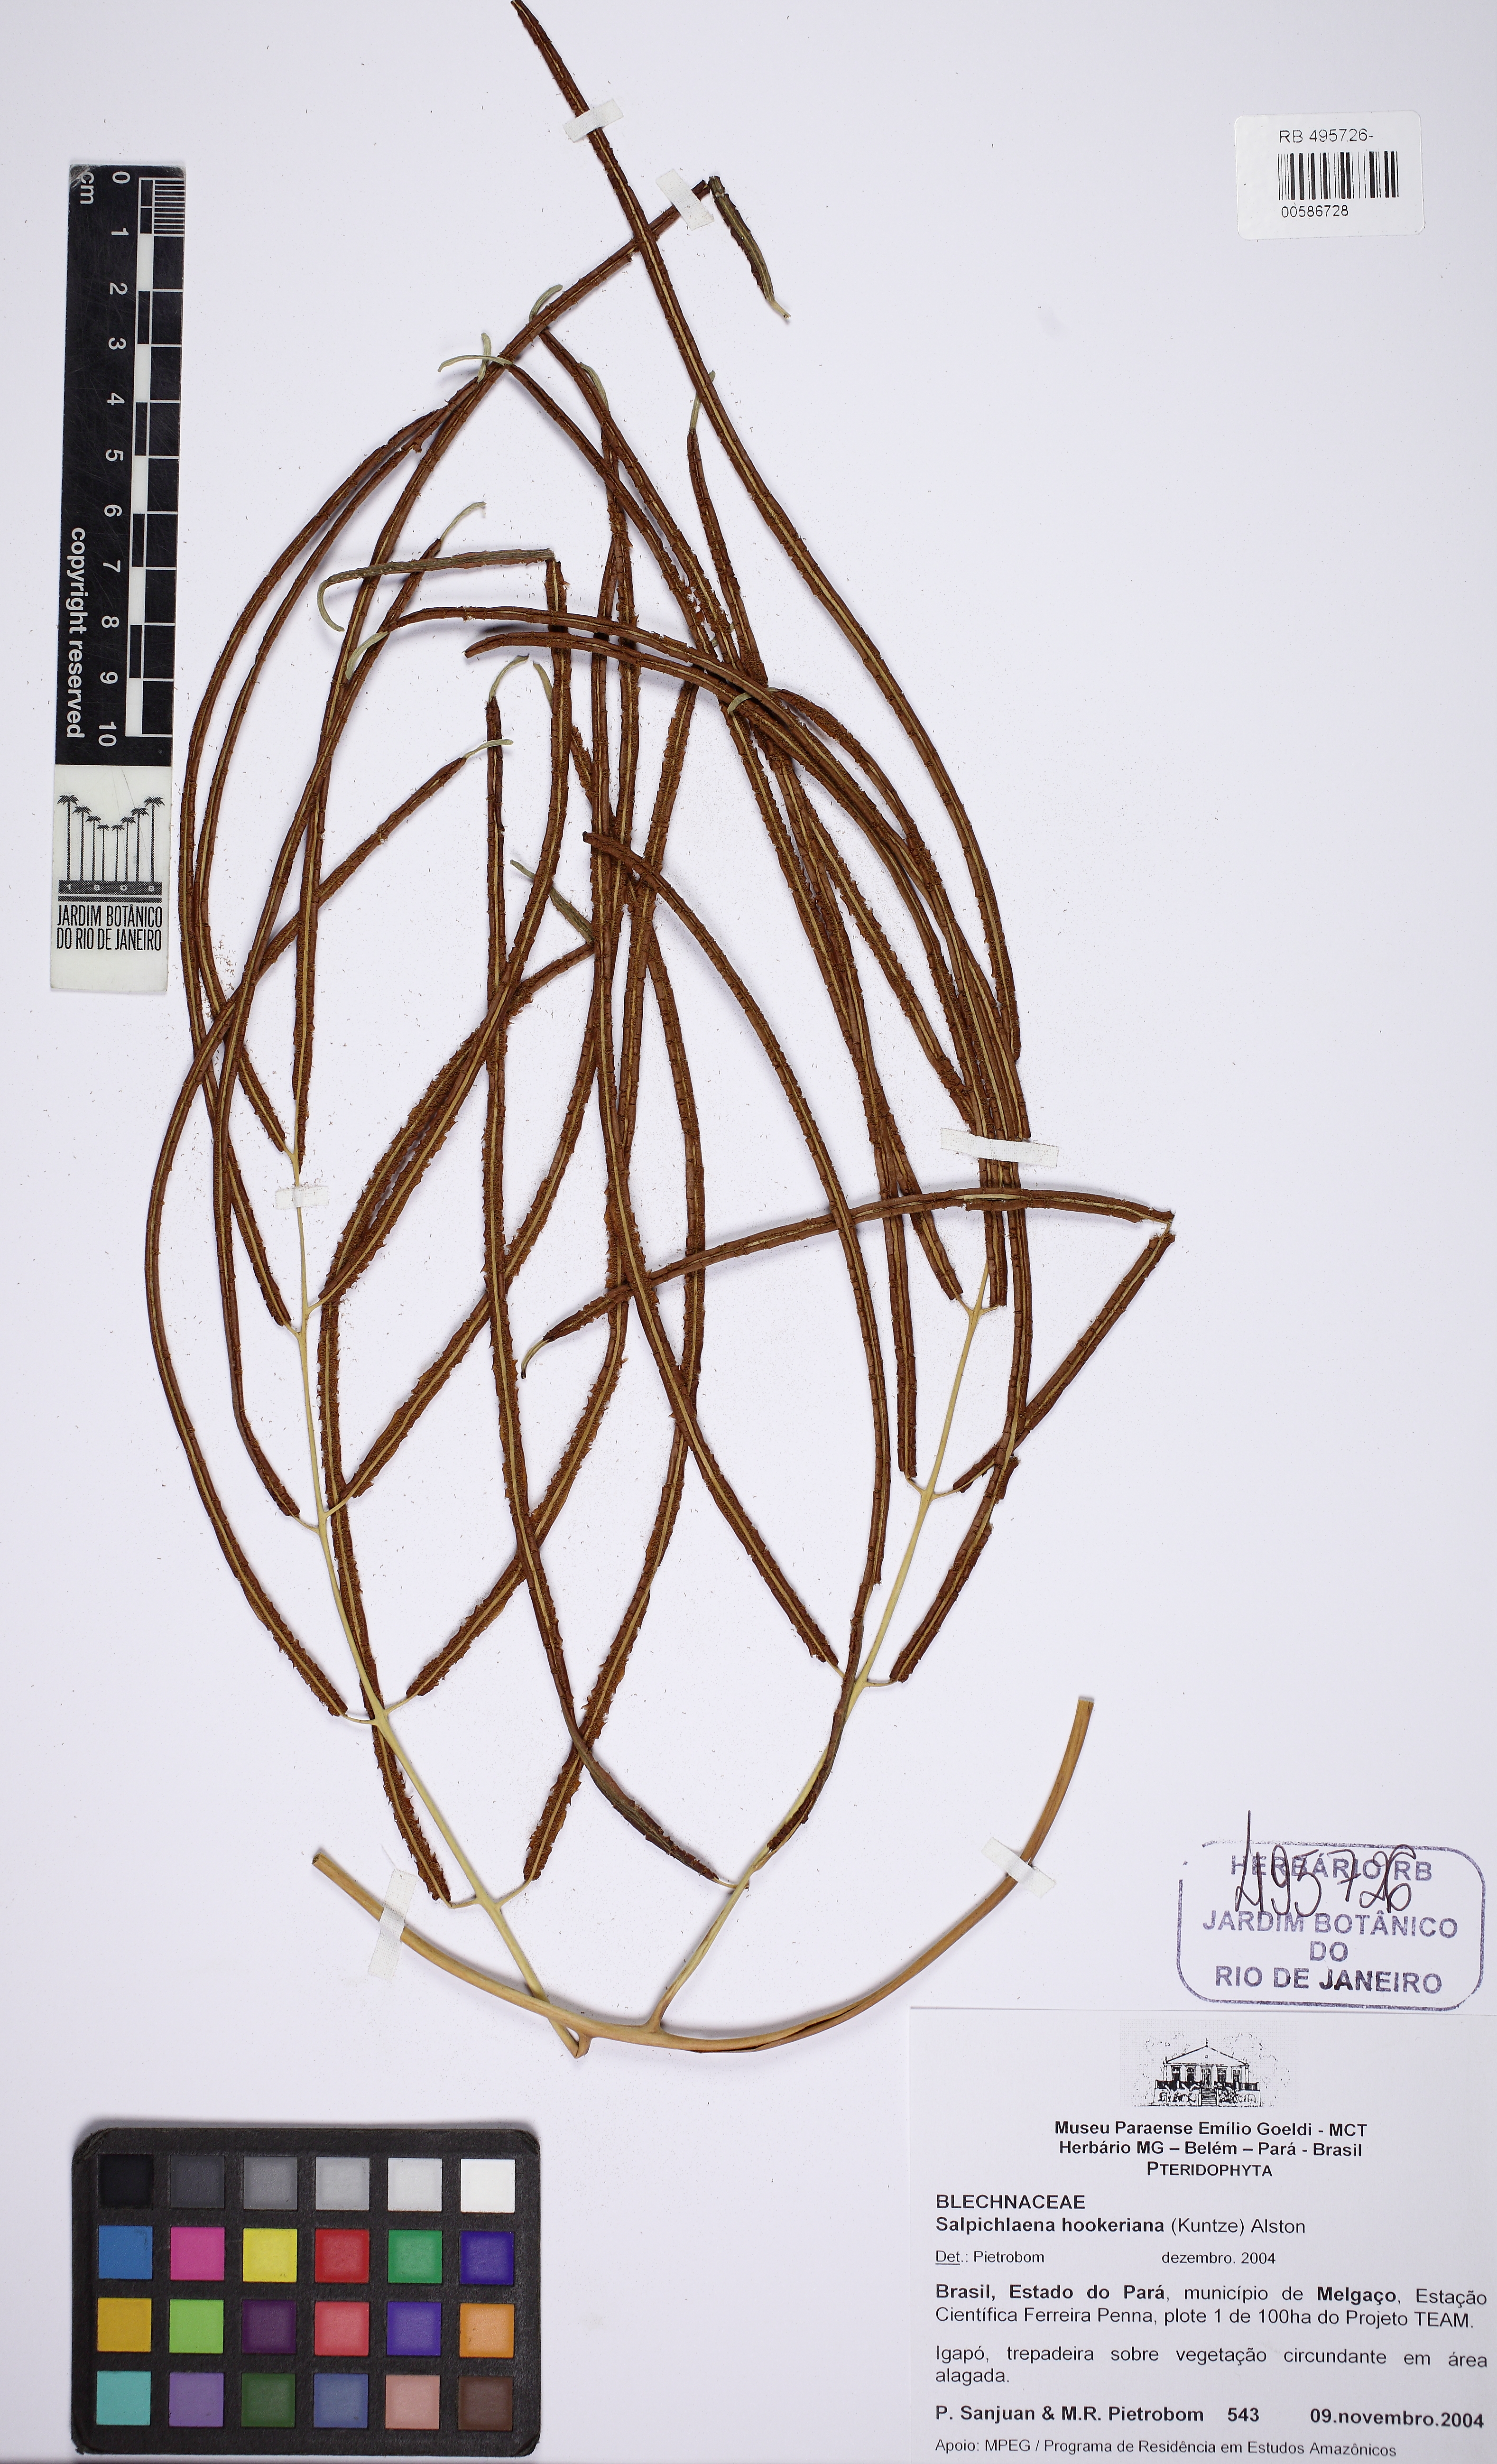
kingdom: Plantae
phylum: Tracheophyta
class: Polypodiopsida
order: Polypodiales
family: Blechnaceae
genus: Salpichlaena
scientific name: Salpichlaena hookeriana
